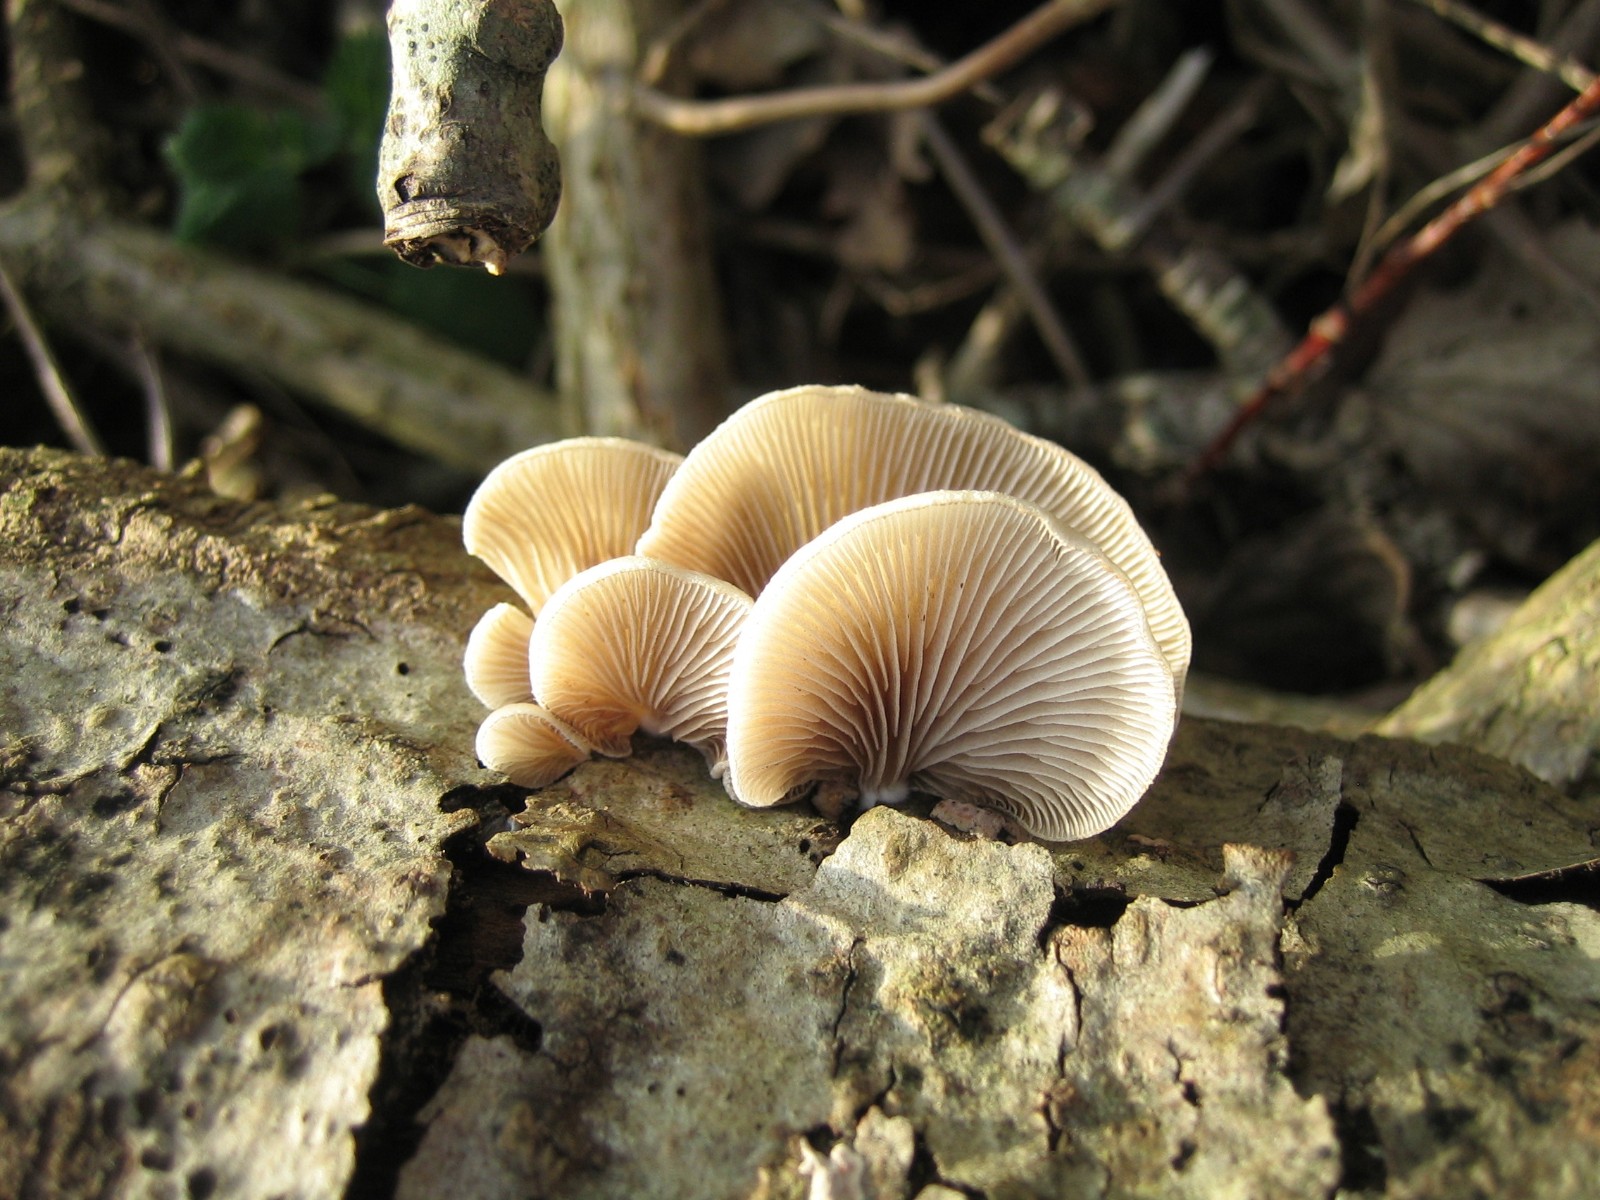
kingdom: Fungi
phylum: Basidiomycota
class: Agaricomycetes
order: Agaricales
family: Crepidotaceae
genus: Crepidotus
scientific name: Crepidotus mollis
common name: blød muslingesvamp
